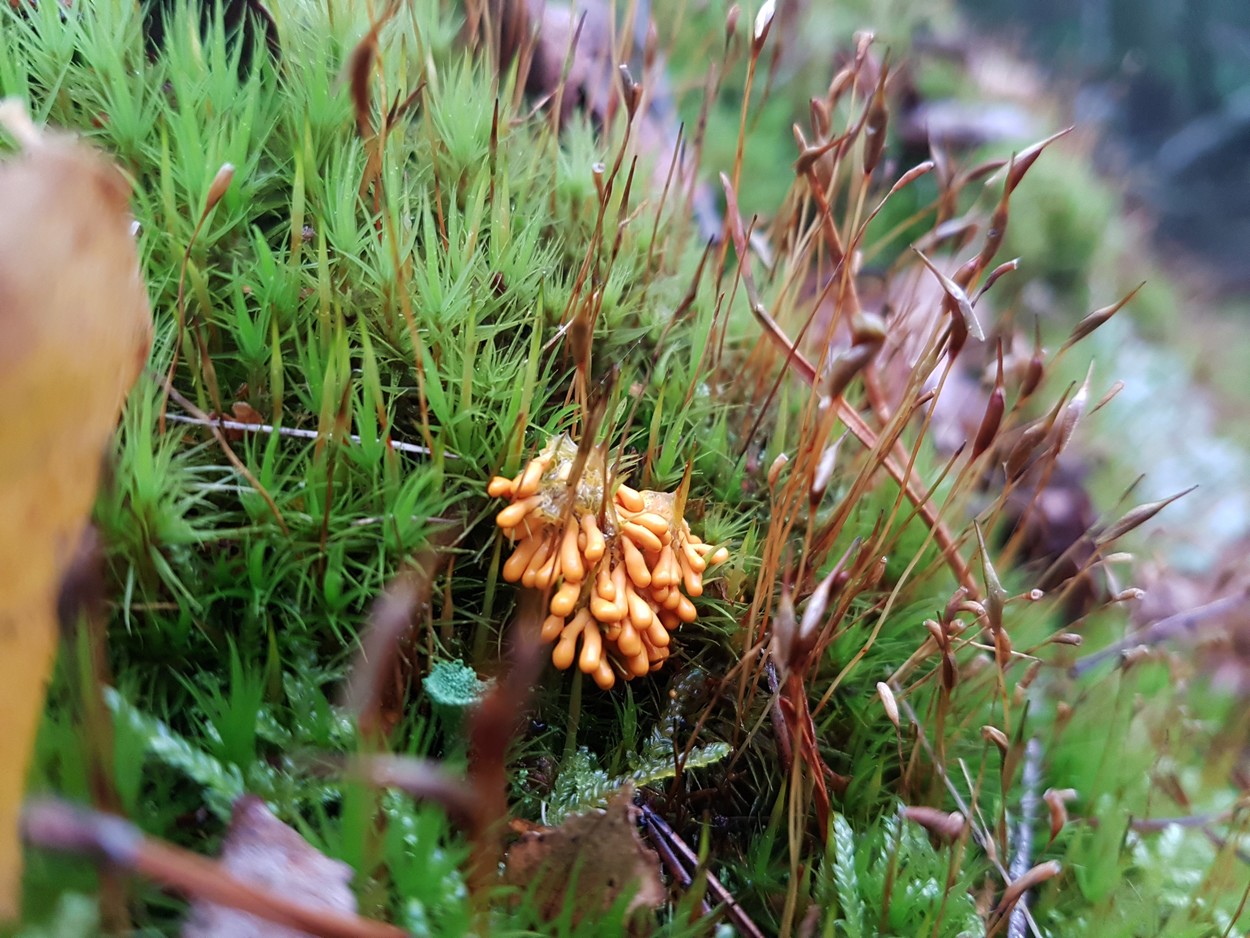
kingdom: Protozoa
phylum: Mycetozoa
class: Myxomycetes
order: Physarales
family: Physaraceae
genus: Leocarpus
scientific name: Leocarpus fragilis
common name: poleret glatfrø
